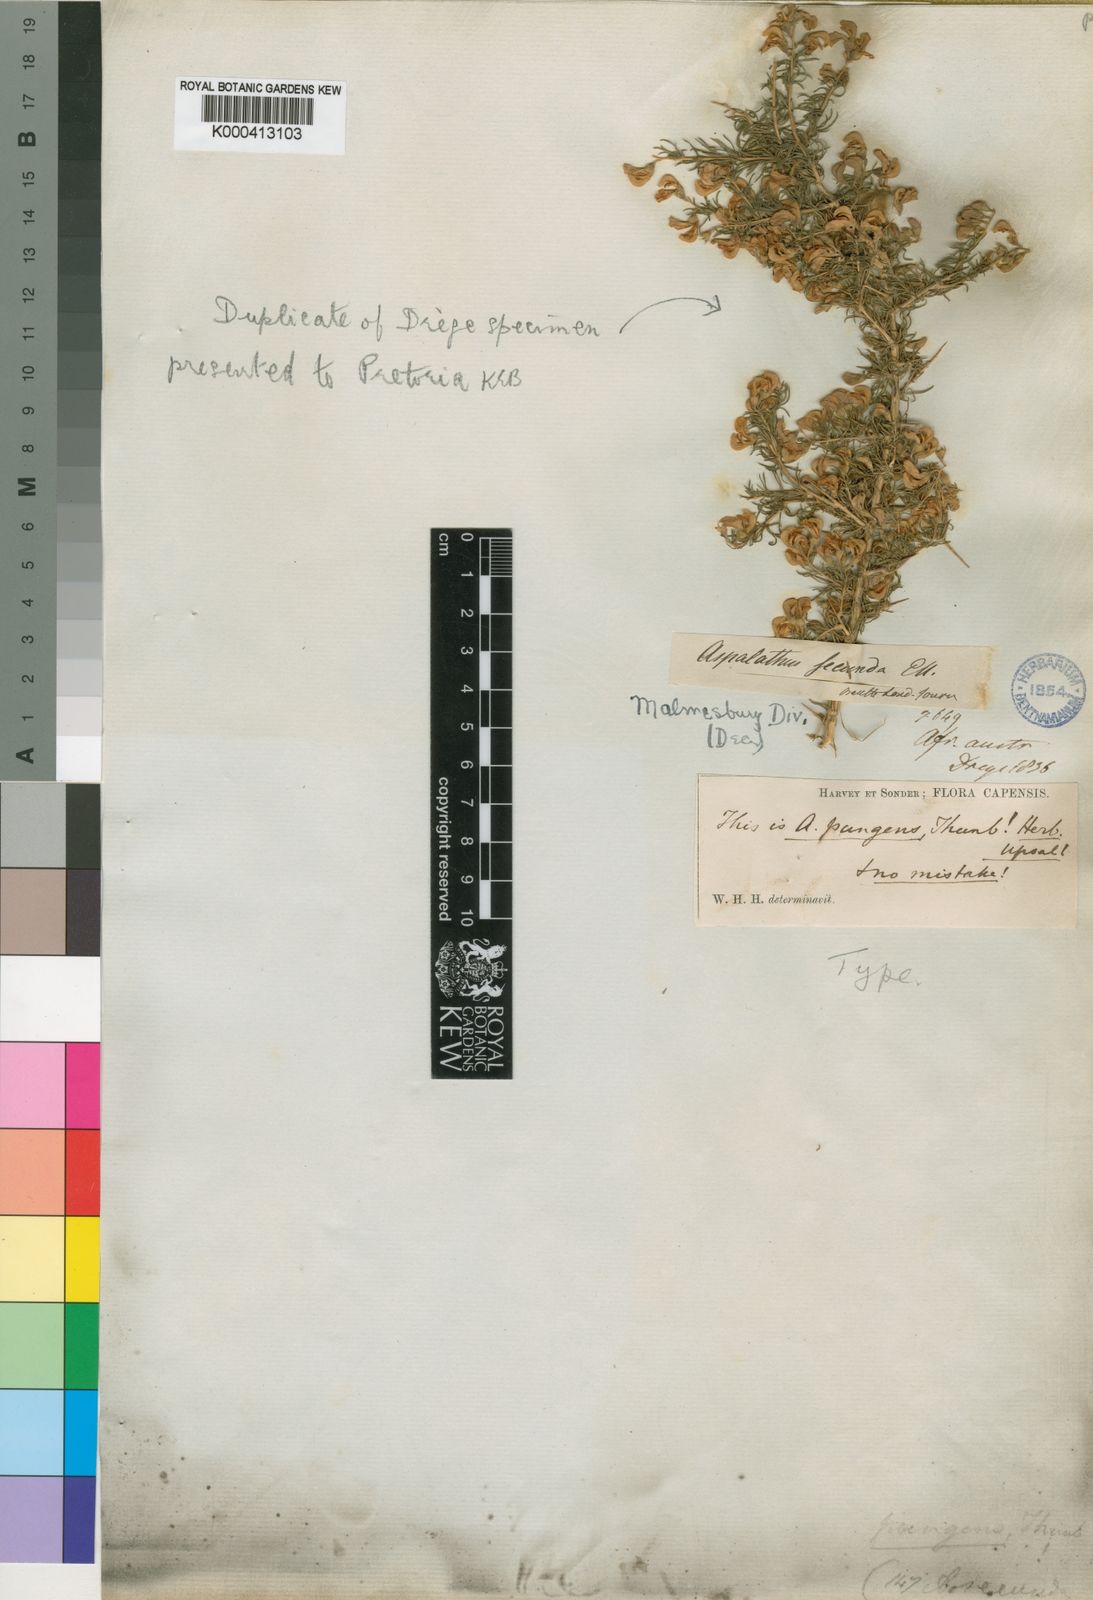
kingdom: Plantae
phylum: Tracheophyta
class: Magnoliopsida
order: Fabales
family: Fabaceae
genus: Aspalathus
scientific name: Aspalathus secunda
